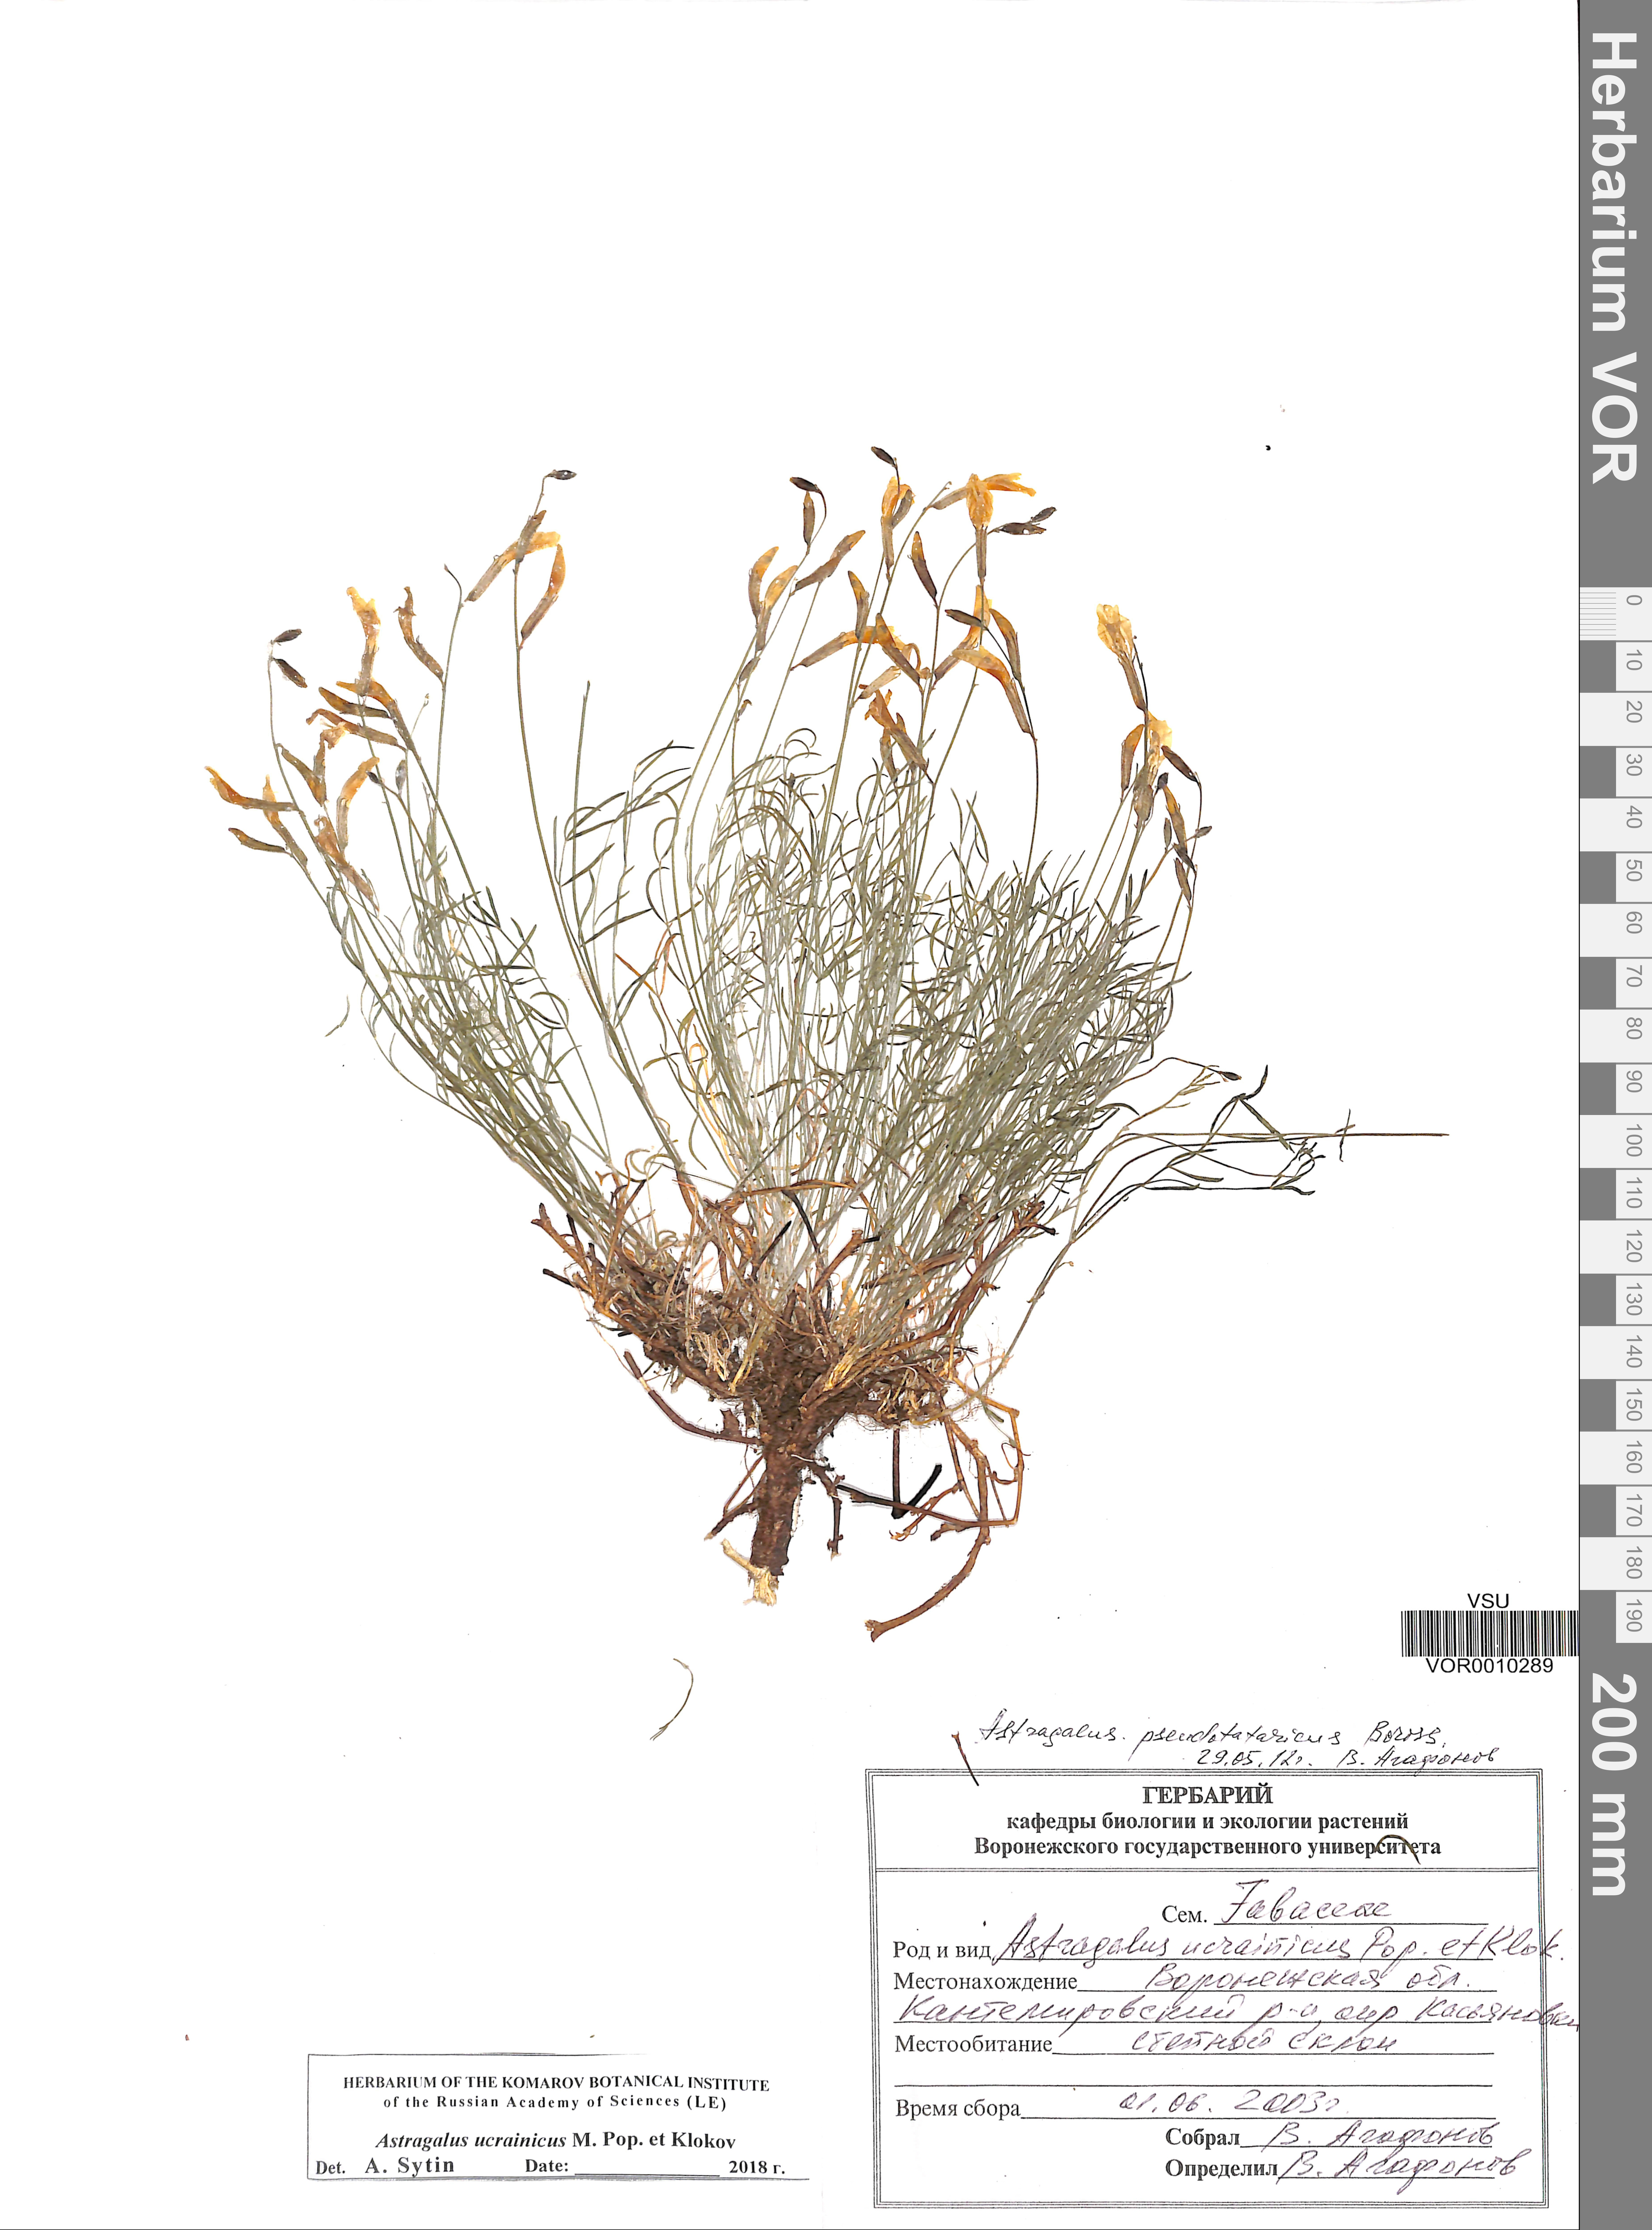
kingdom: Plantae
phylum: Tracheophyta
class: Magnoliopsida
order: Fabales
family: Fabaceae
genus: Astragalus
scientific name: Astragalus ucrainicus
